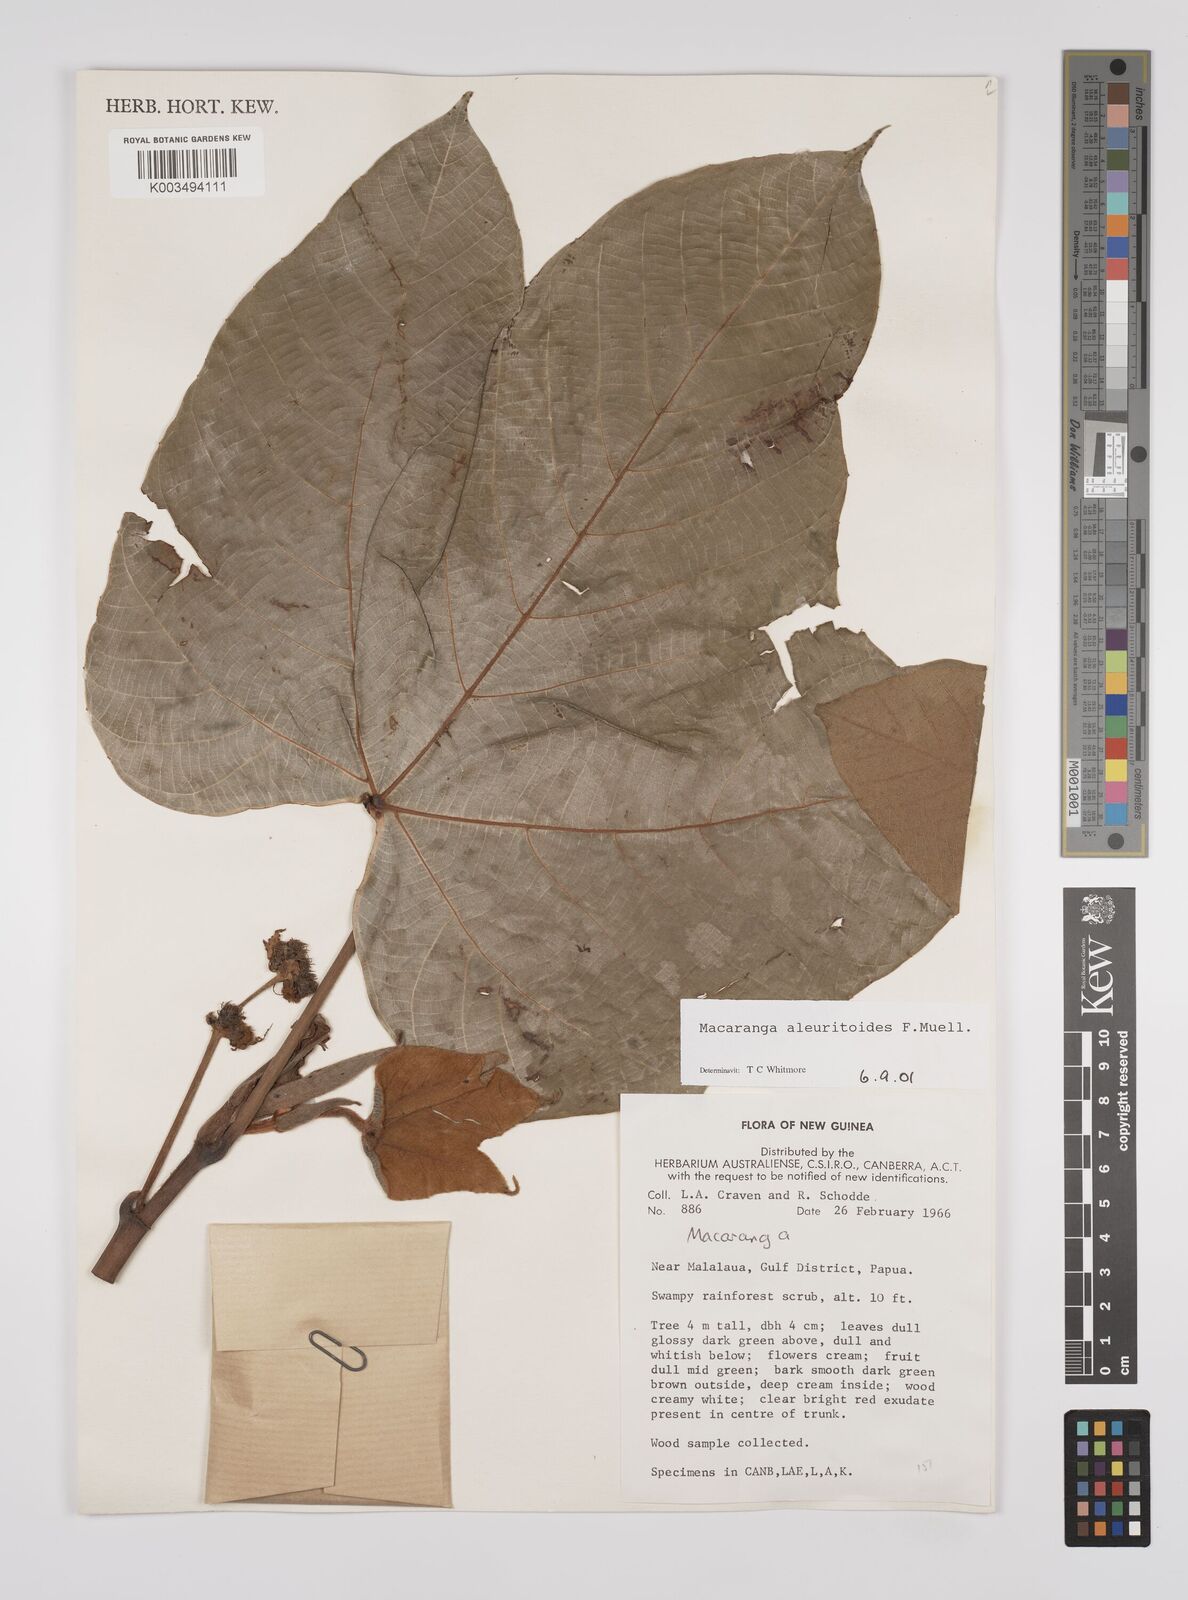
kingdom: Plantae
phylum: Tracheophyta
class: Magnoliopsida
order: Malpighiales
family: Euphorbiaceae
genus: Macaranga
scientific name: Macaranga aleuritoides
